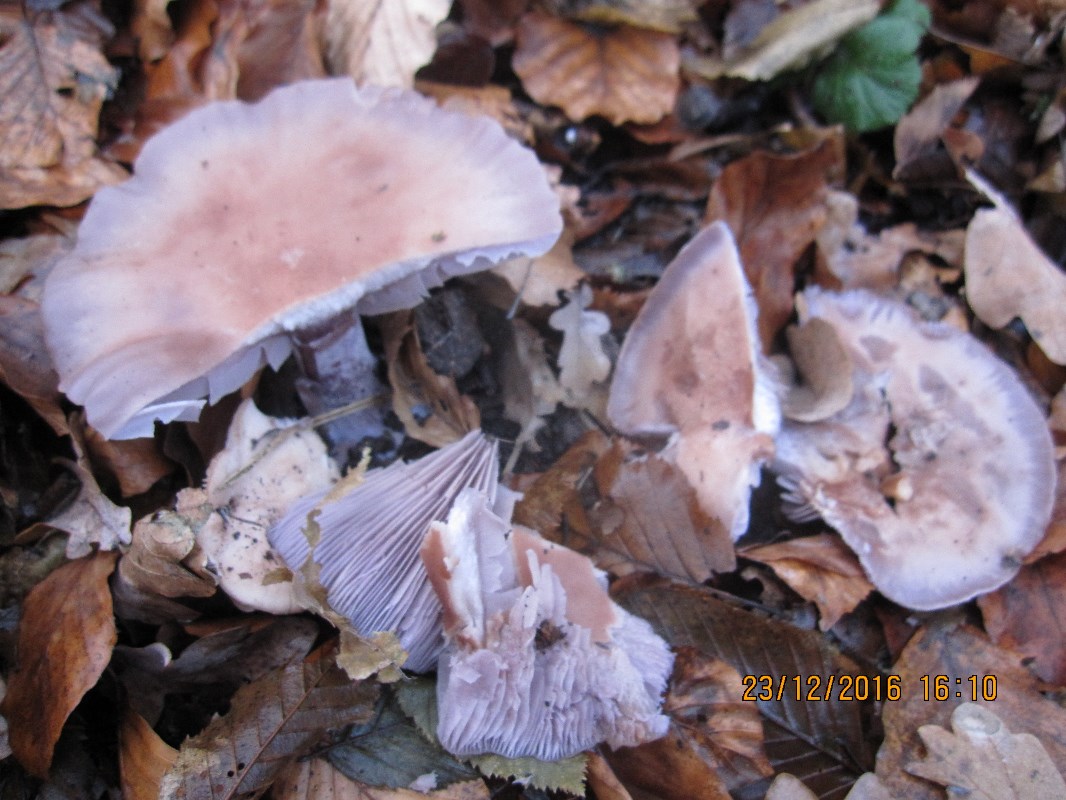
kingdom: Fungi
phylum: Basidiomycota
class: Agaricomycetes
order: Agaricales
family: Tricholomataceae
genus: Lepista
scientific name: Lepista nuda
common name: violet hekseringshat
